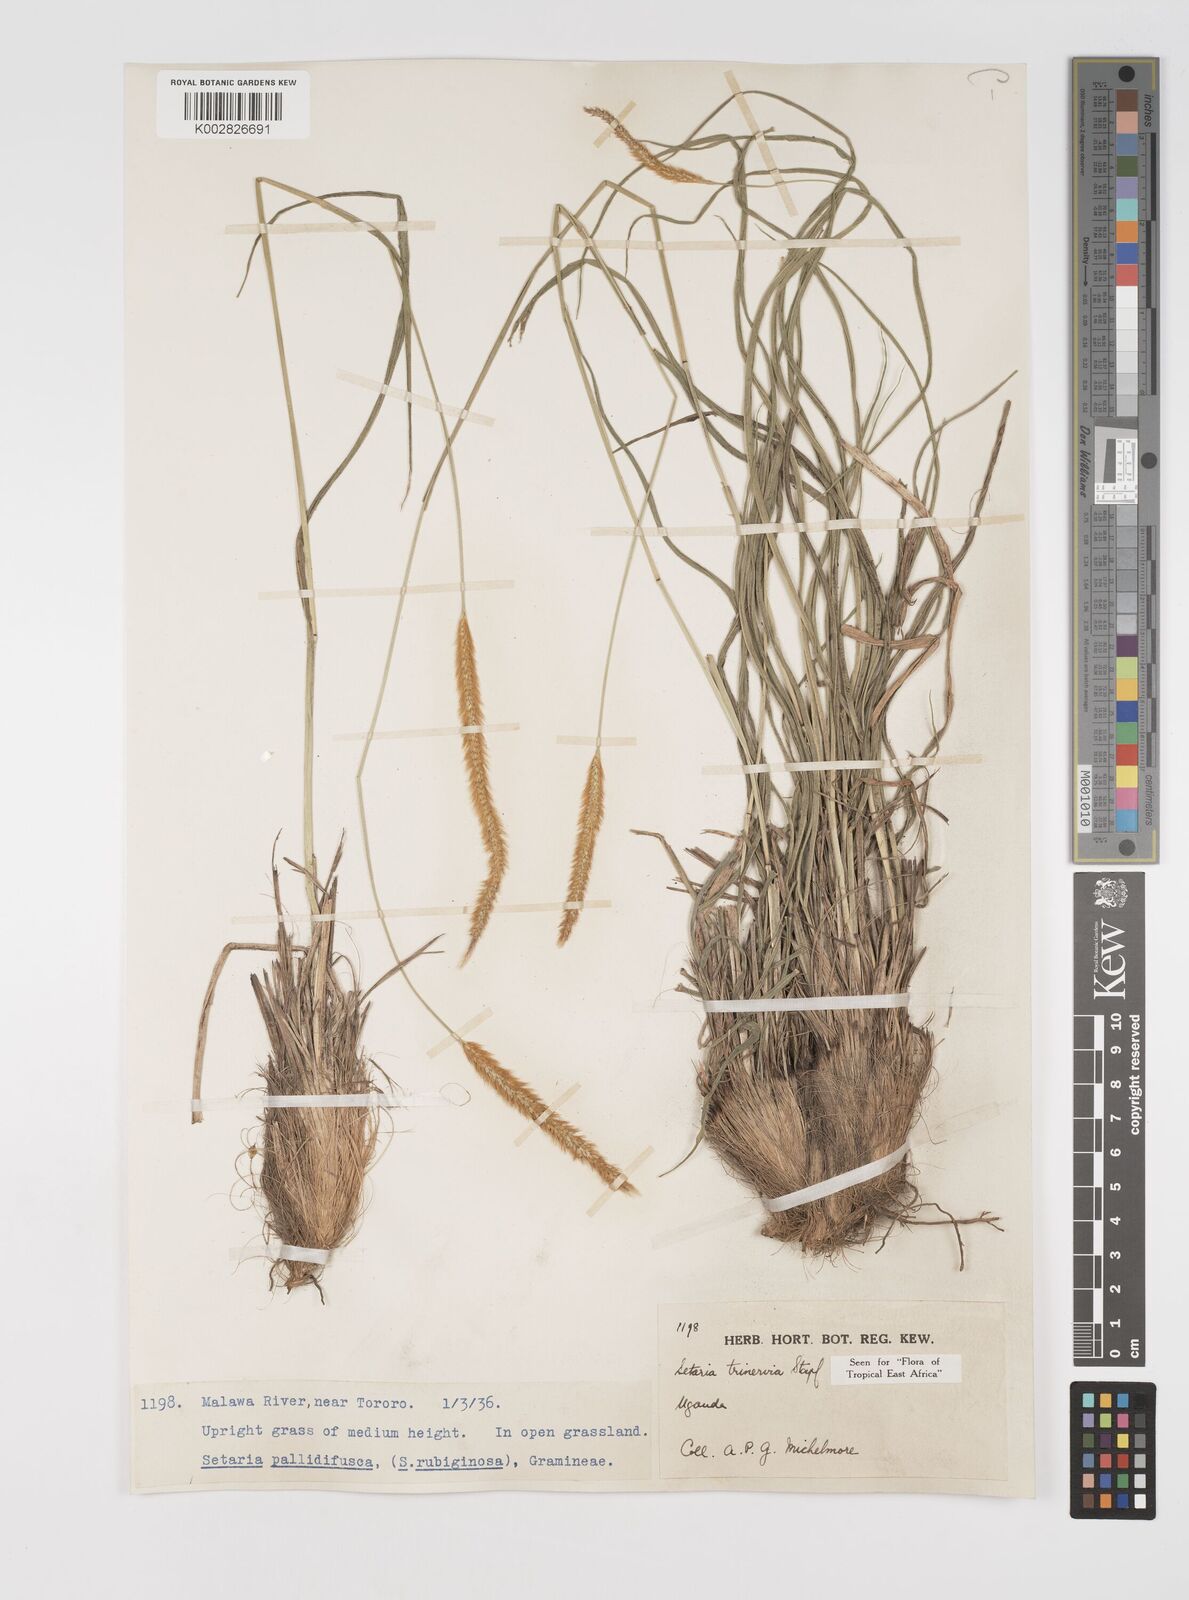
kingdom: Plantae
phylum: Tracheophyta
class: Liliopsida
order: Poales
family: Poaceae
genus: Setaria
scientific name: Setaria sphacelata
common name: African bristlegrass
